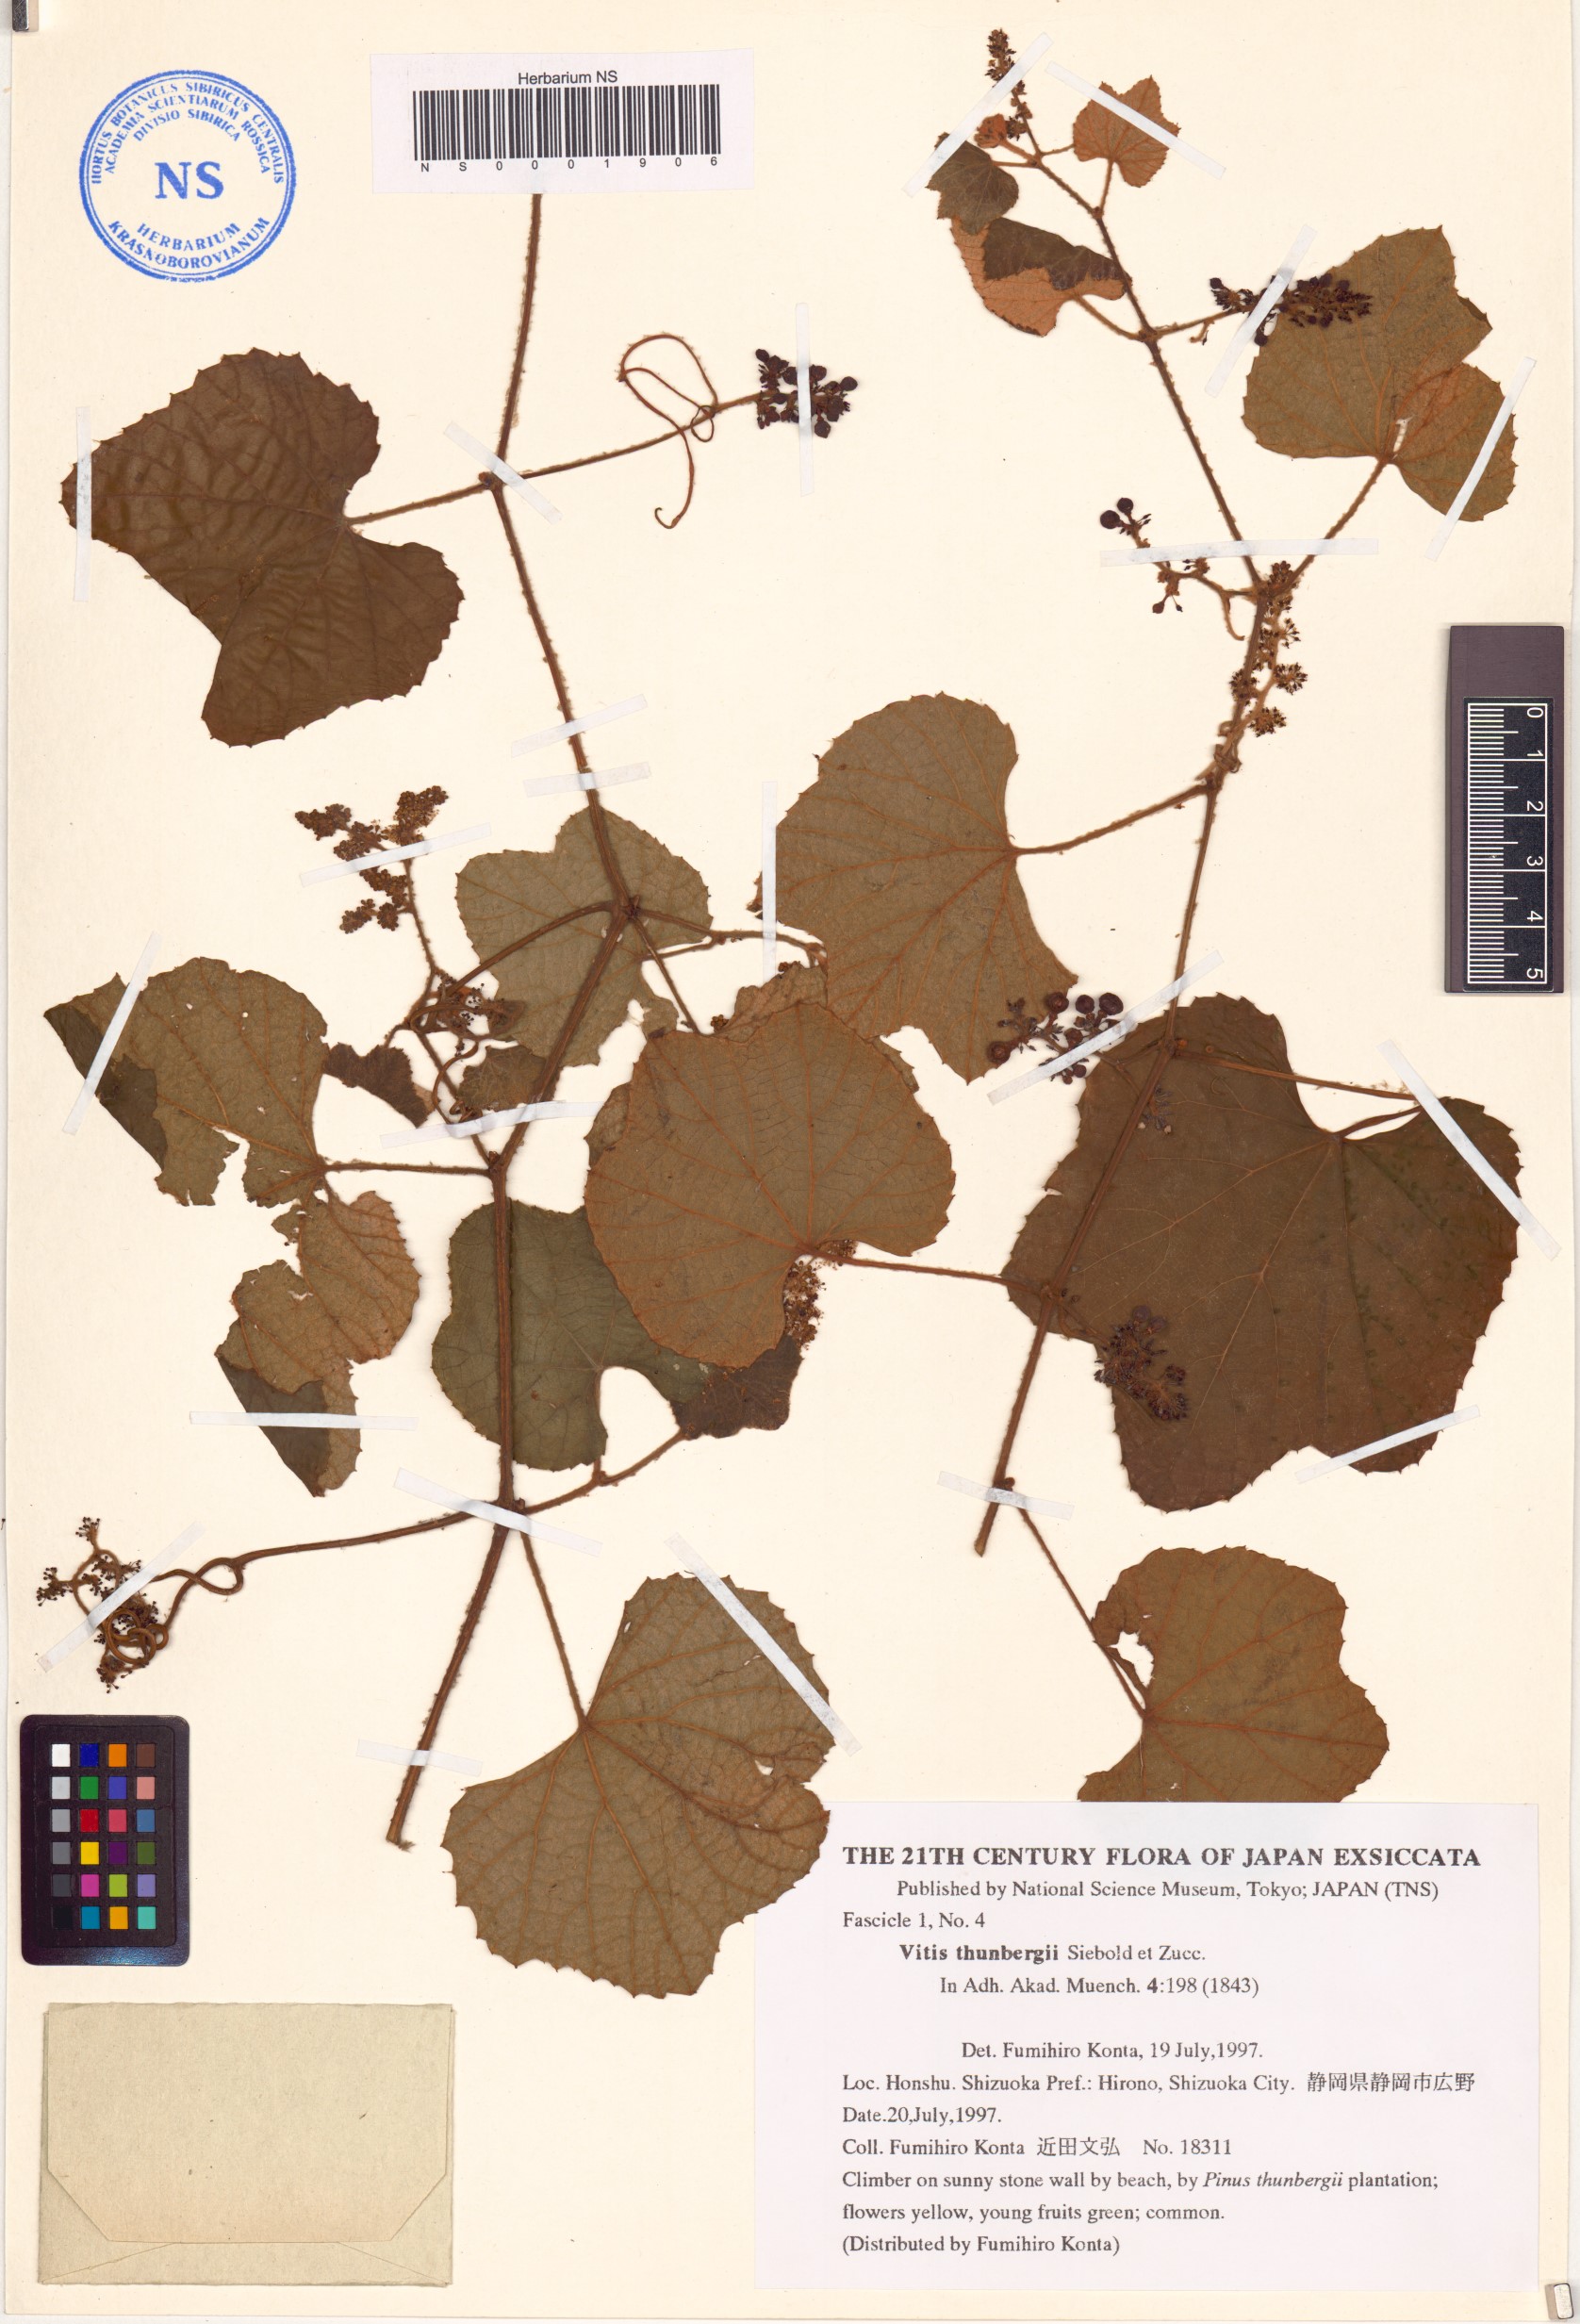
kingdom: Plantae
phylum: Tracheophyta
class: Magnoliopsida
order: Vitales
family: Vitaceae
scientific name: Vitaceae
